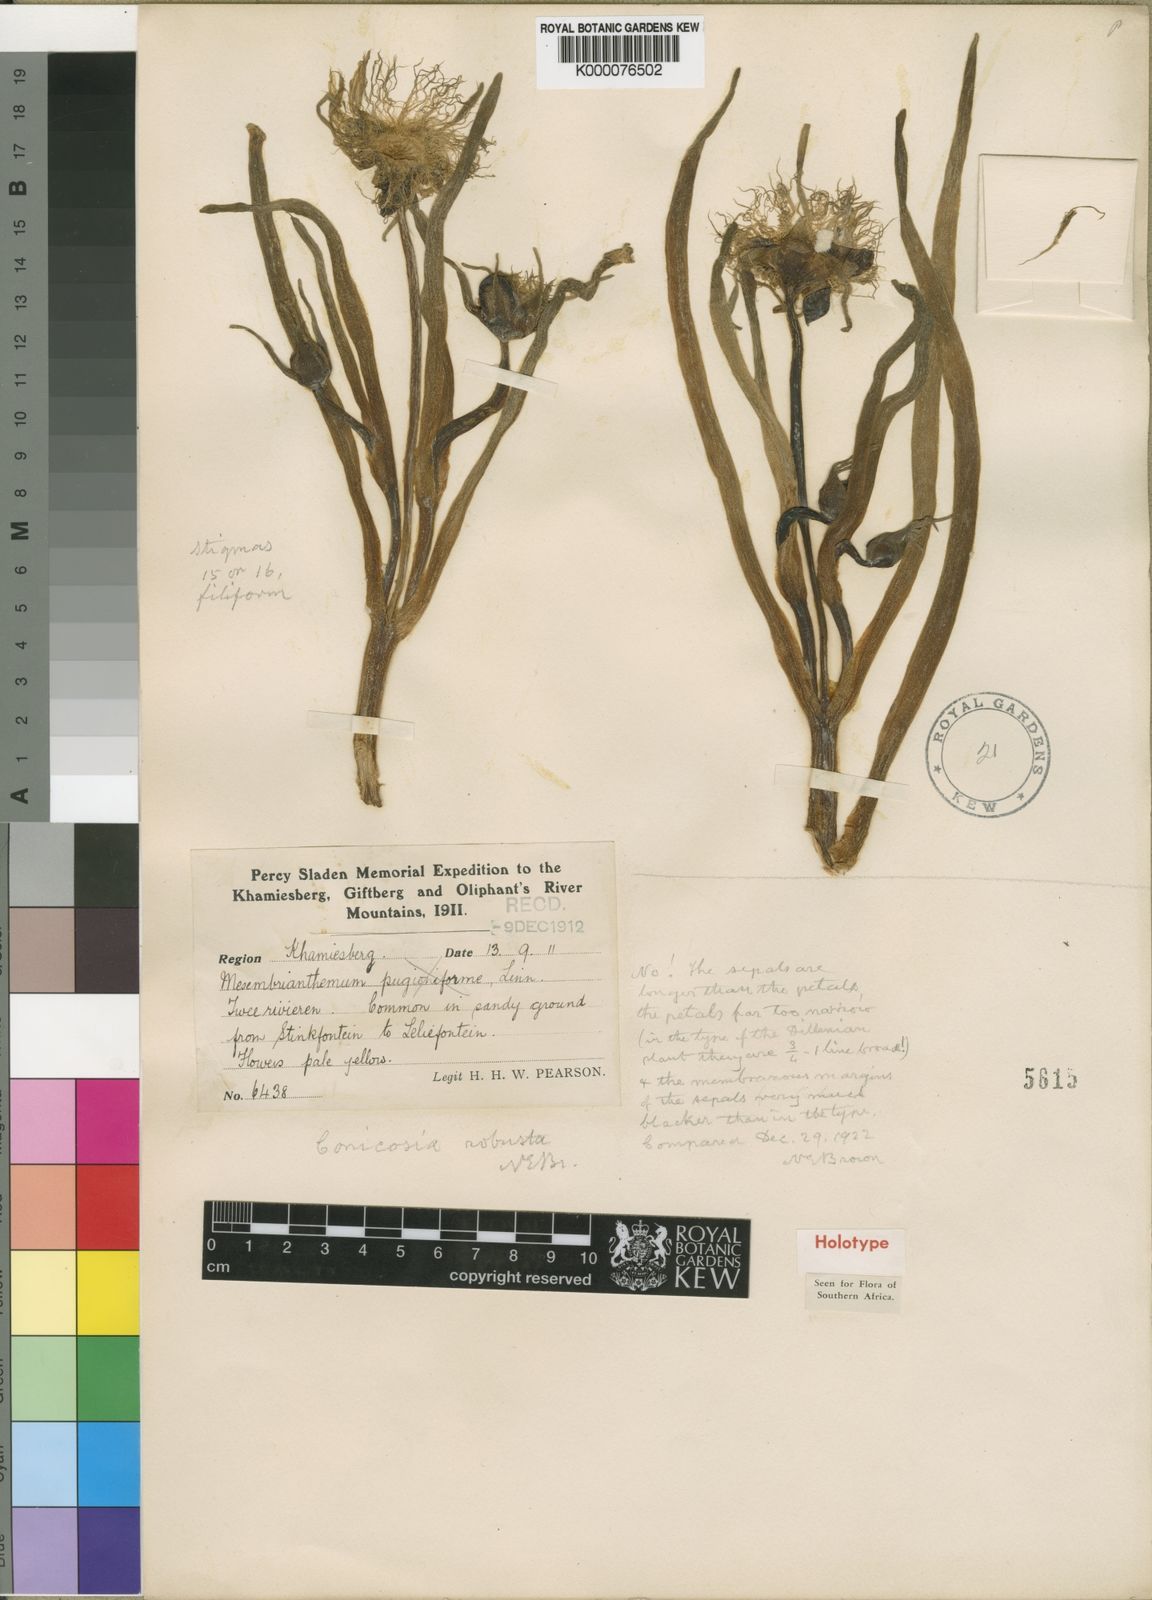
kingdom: Plantae
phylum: Tracheophyta
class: Magnoliopsida
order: Caryophyllales
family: Aizoaceae
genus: Conicosia
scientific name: Conicosia elongata
